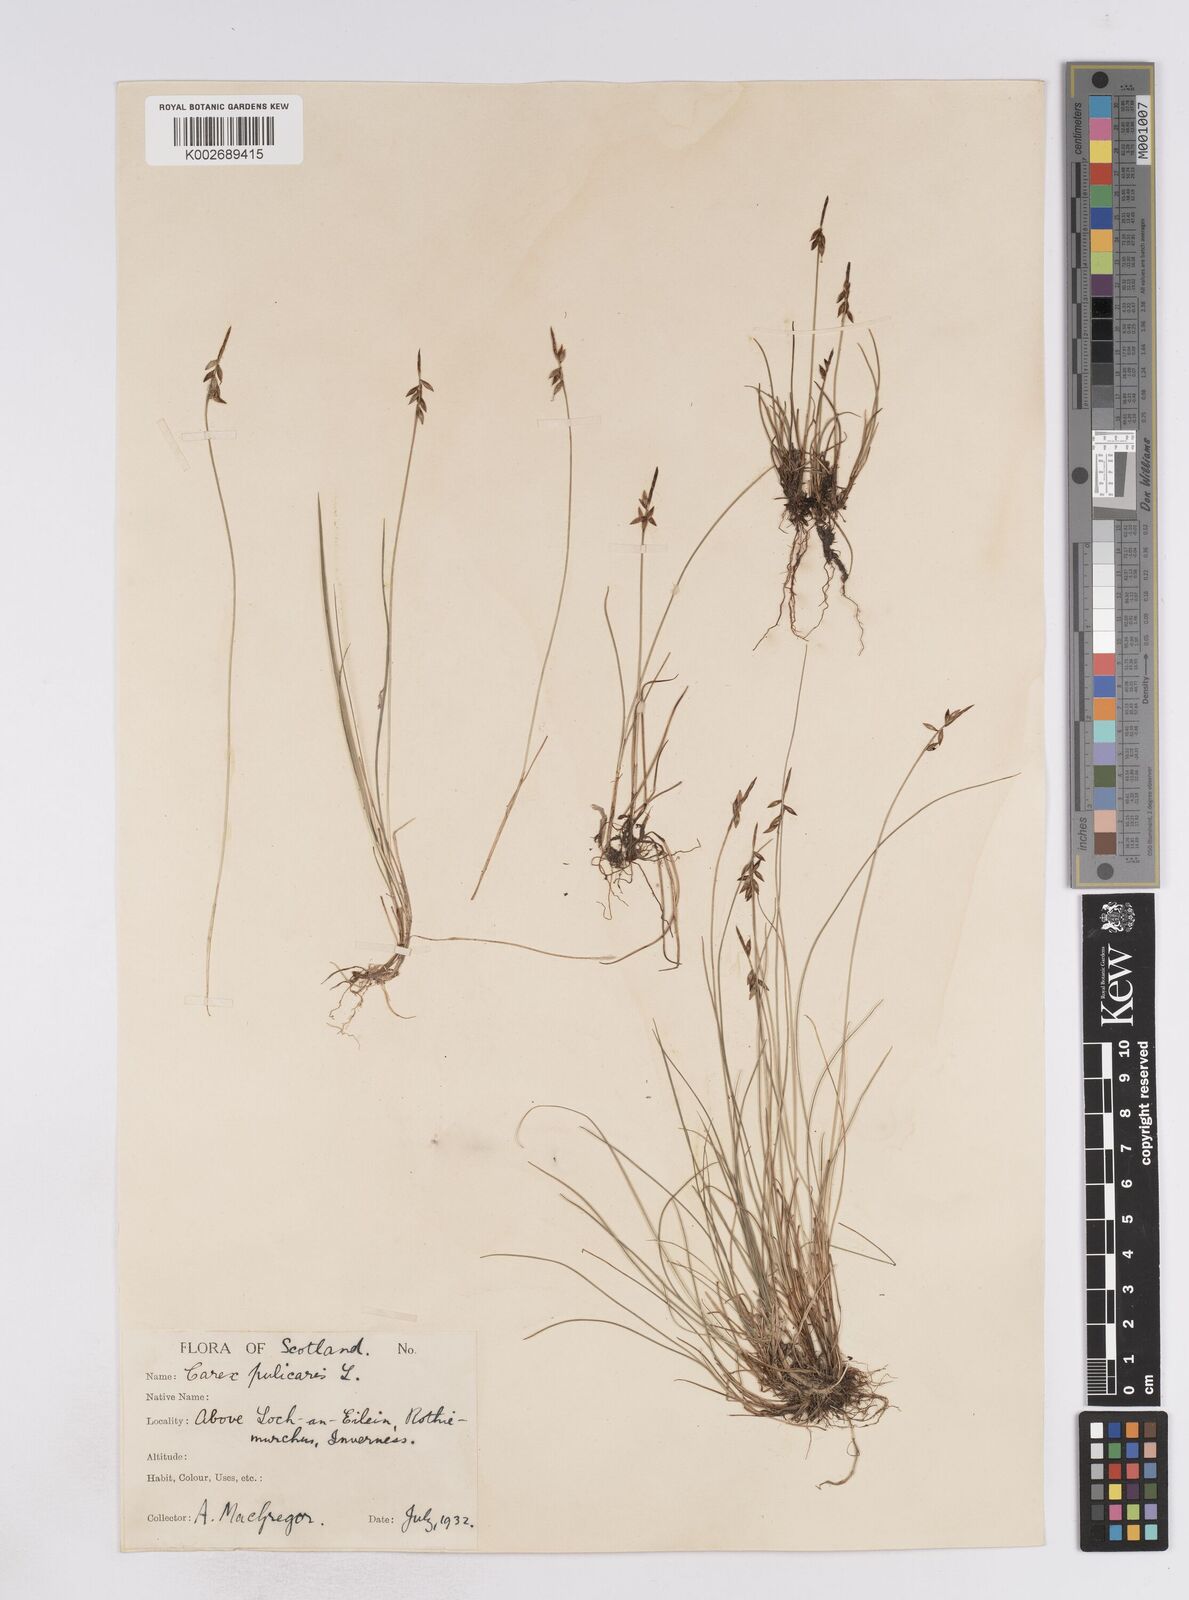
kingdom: Plantae
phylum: Tracheophyta
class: Liliopsida
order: Poales
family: Cyperaceae
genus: Carex
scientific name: Carex flacca
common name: Glaucous sedge
